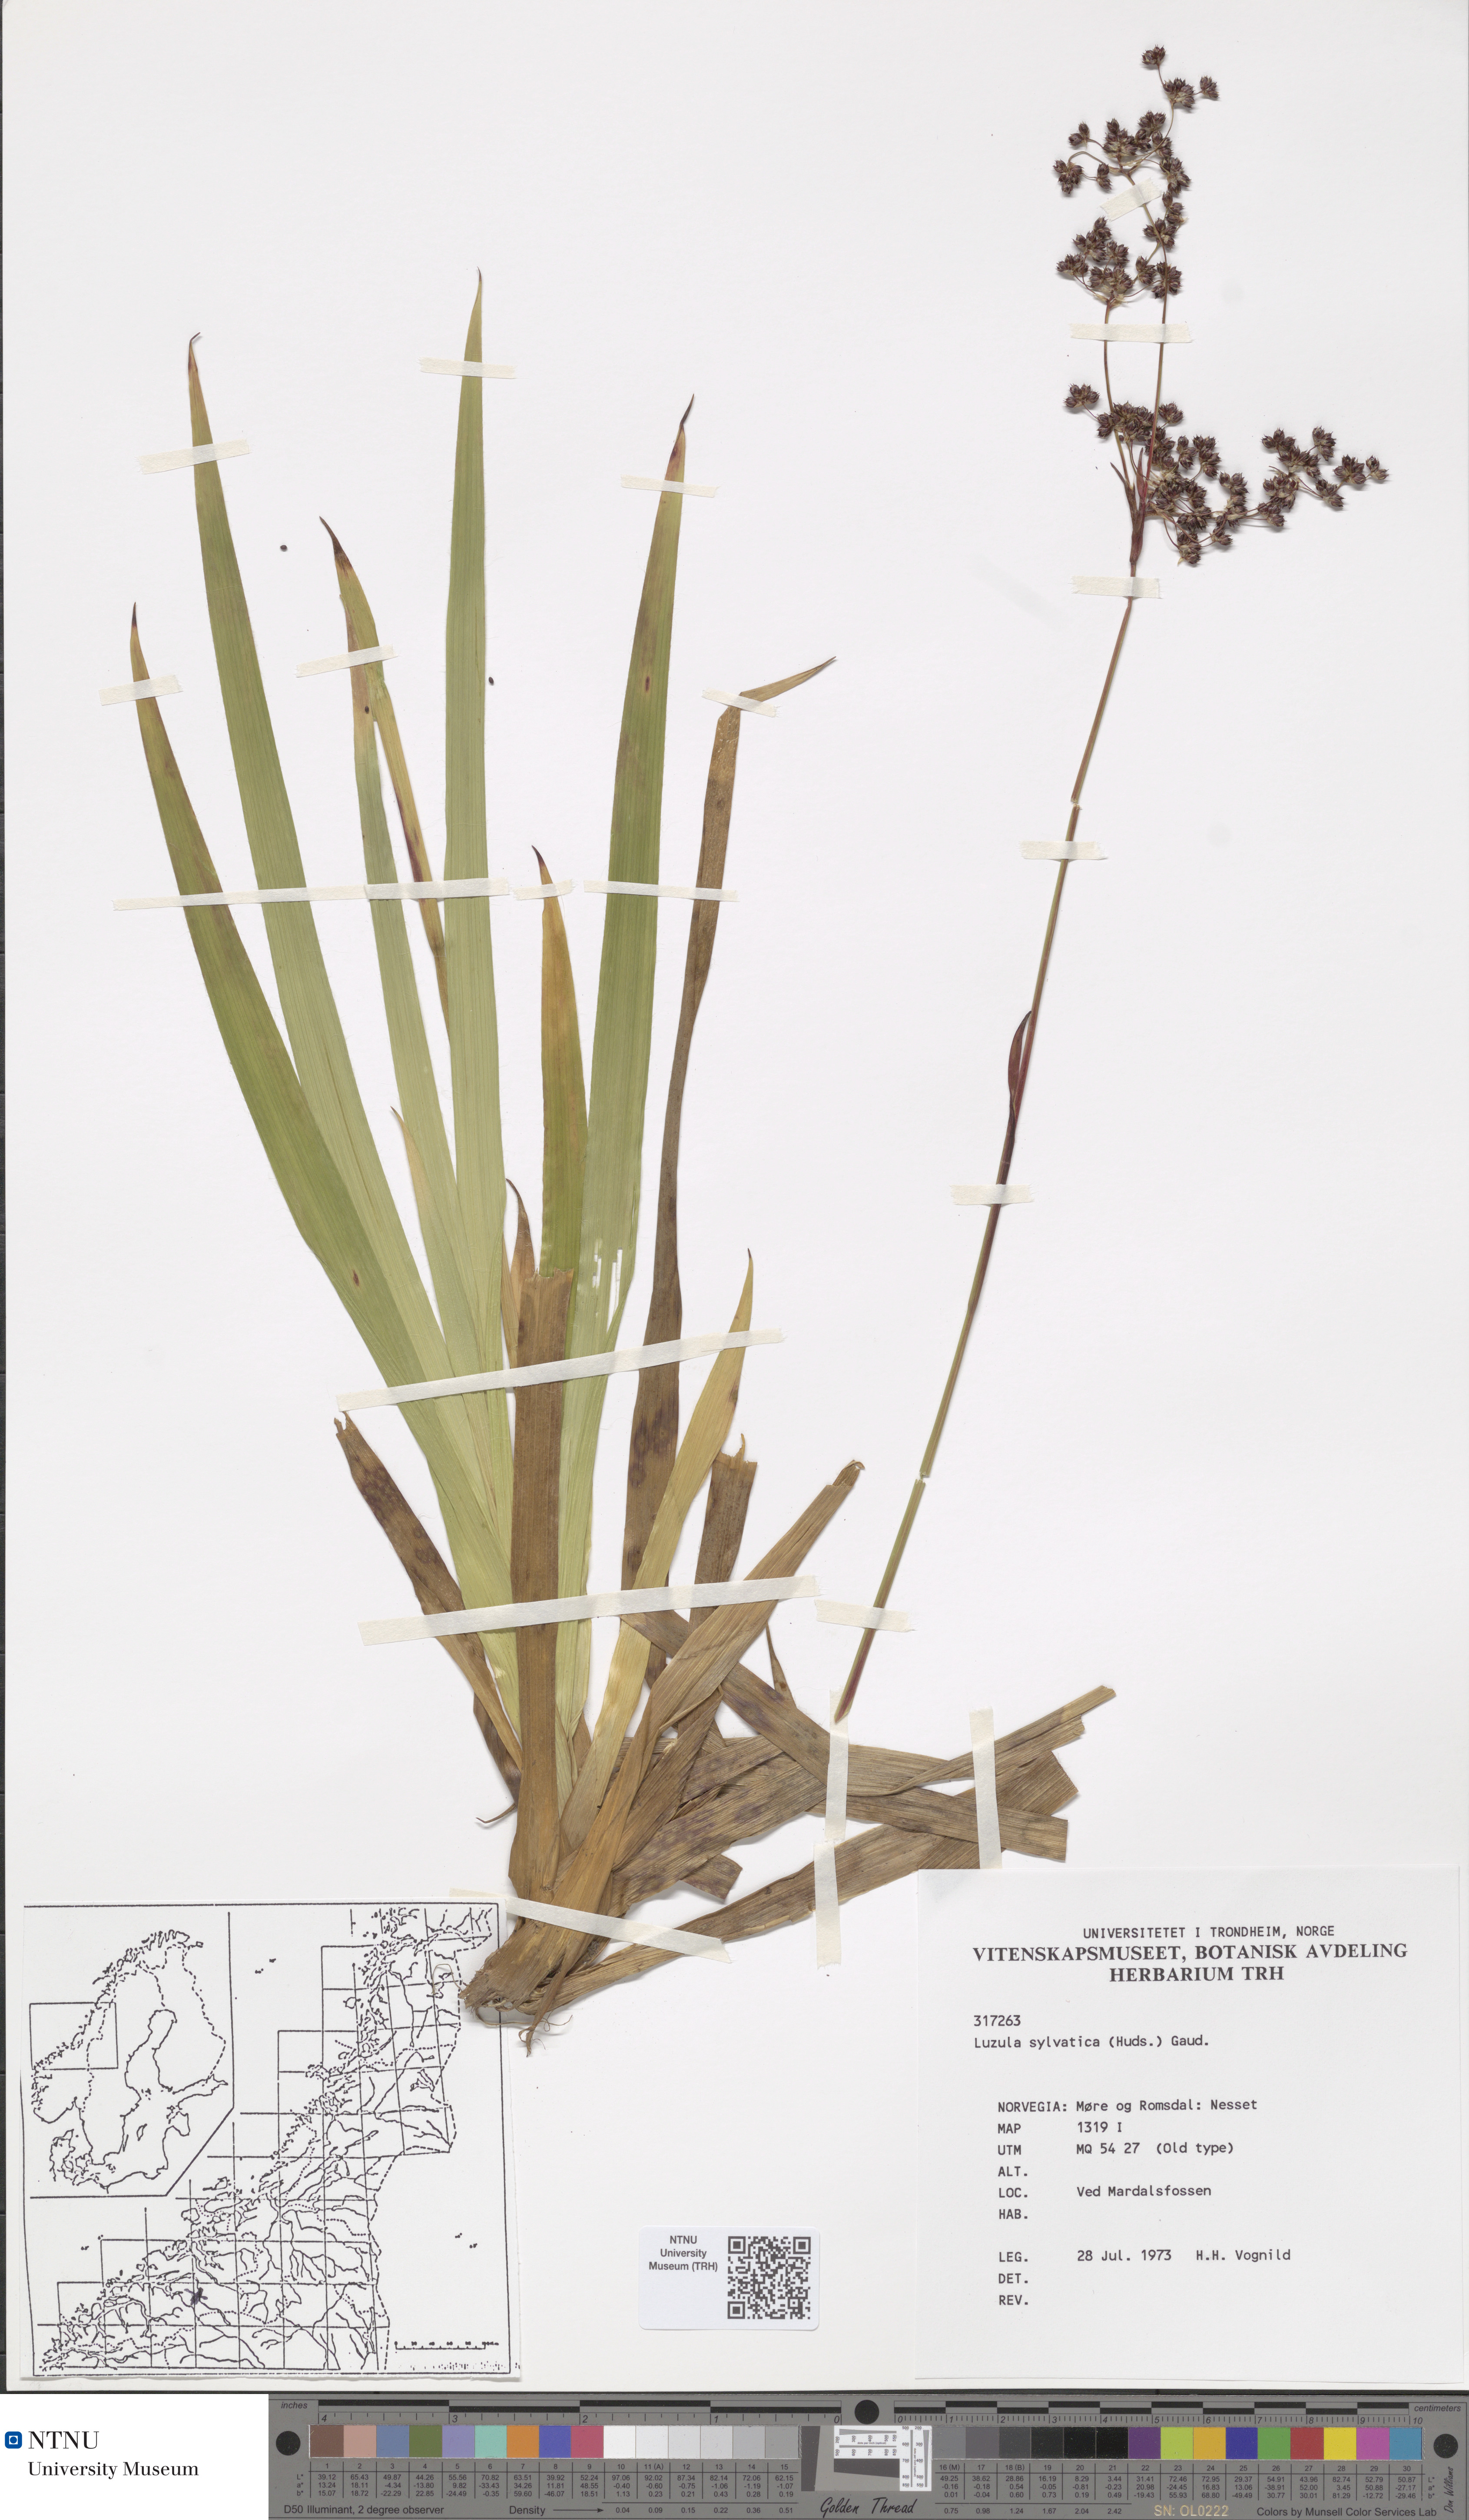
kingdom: Plantae
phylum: Tracheophyta
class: Liliopsida
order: Poales
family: Juncaceae
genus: Luzula
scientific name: Luzula sylvatica
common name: Great wood-rush
